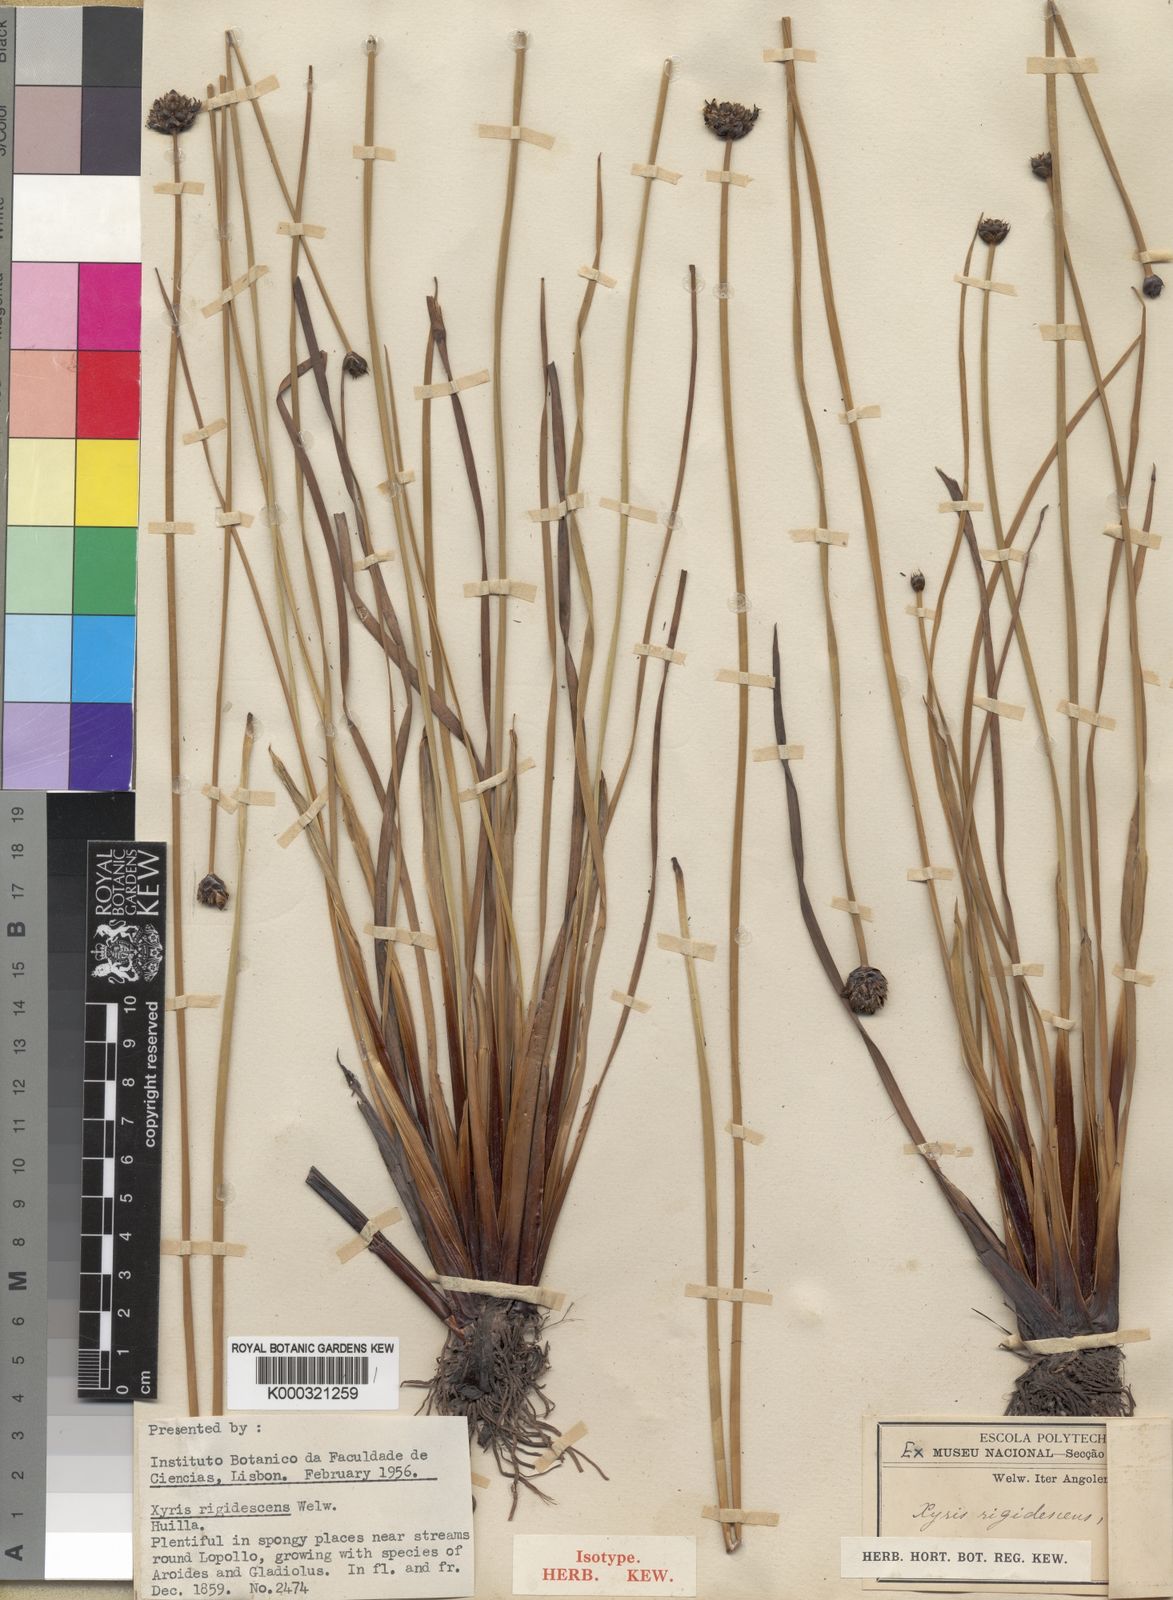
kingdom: Plantae
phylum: Tracheophyta
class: Liliopsida
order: Poales
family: Xyridaceae
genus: Xyris
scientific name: Xyris rehmannii
